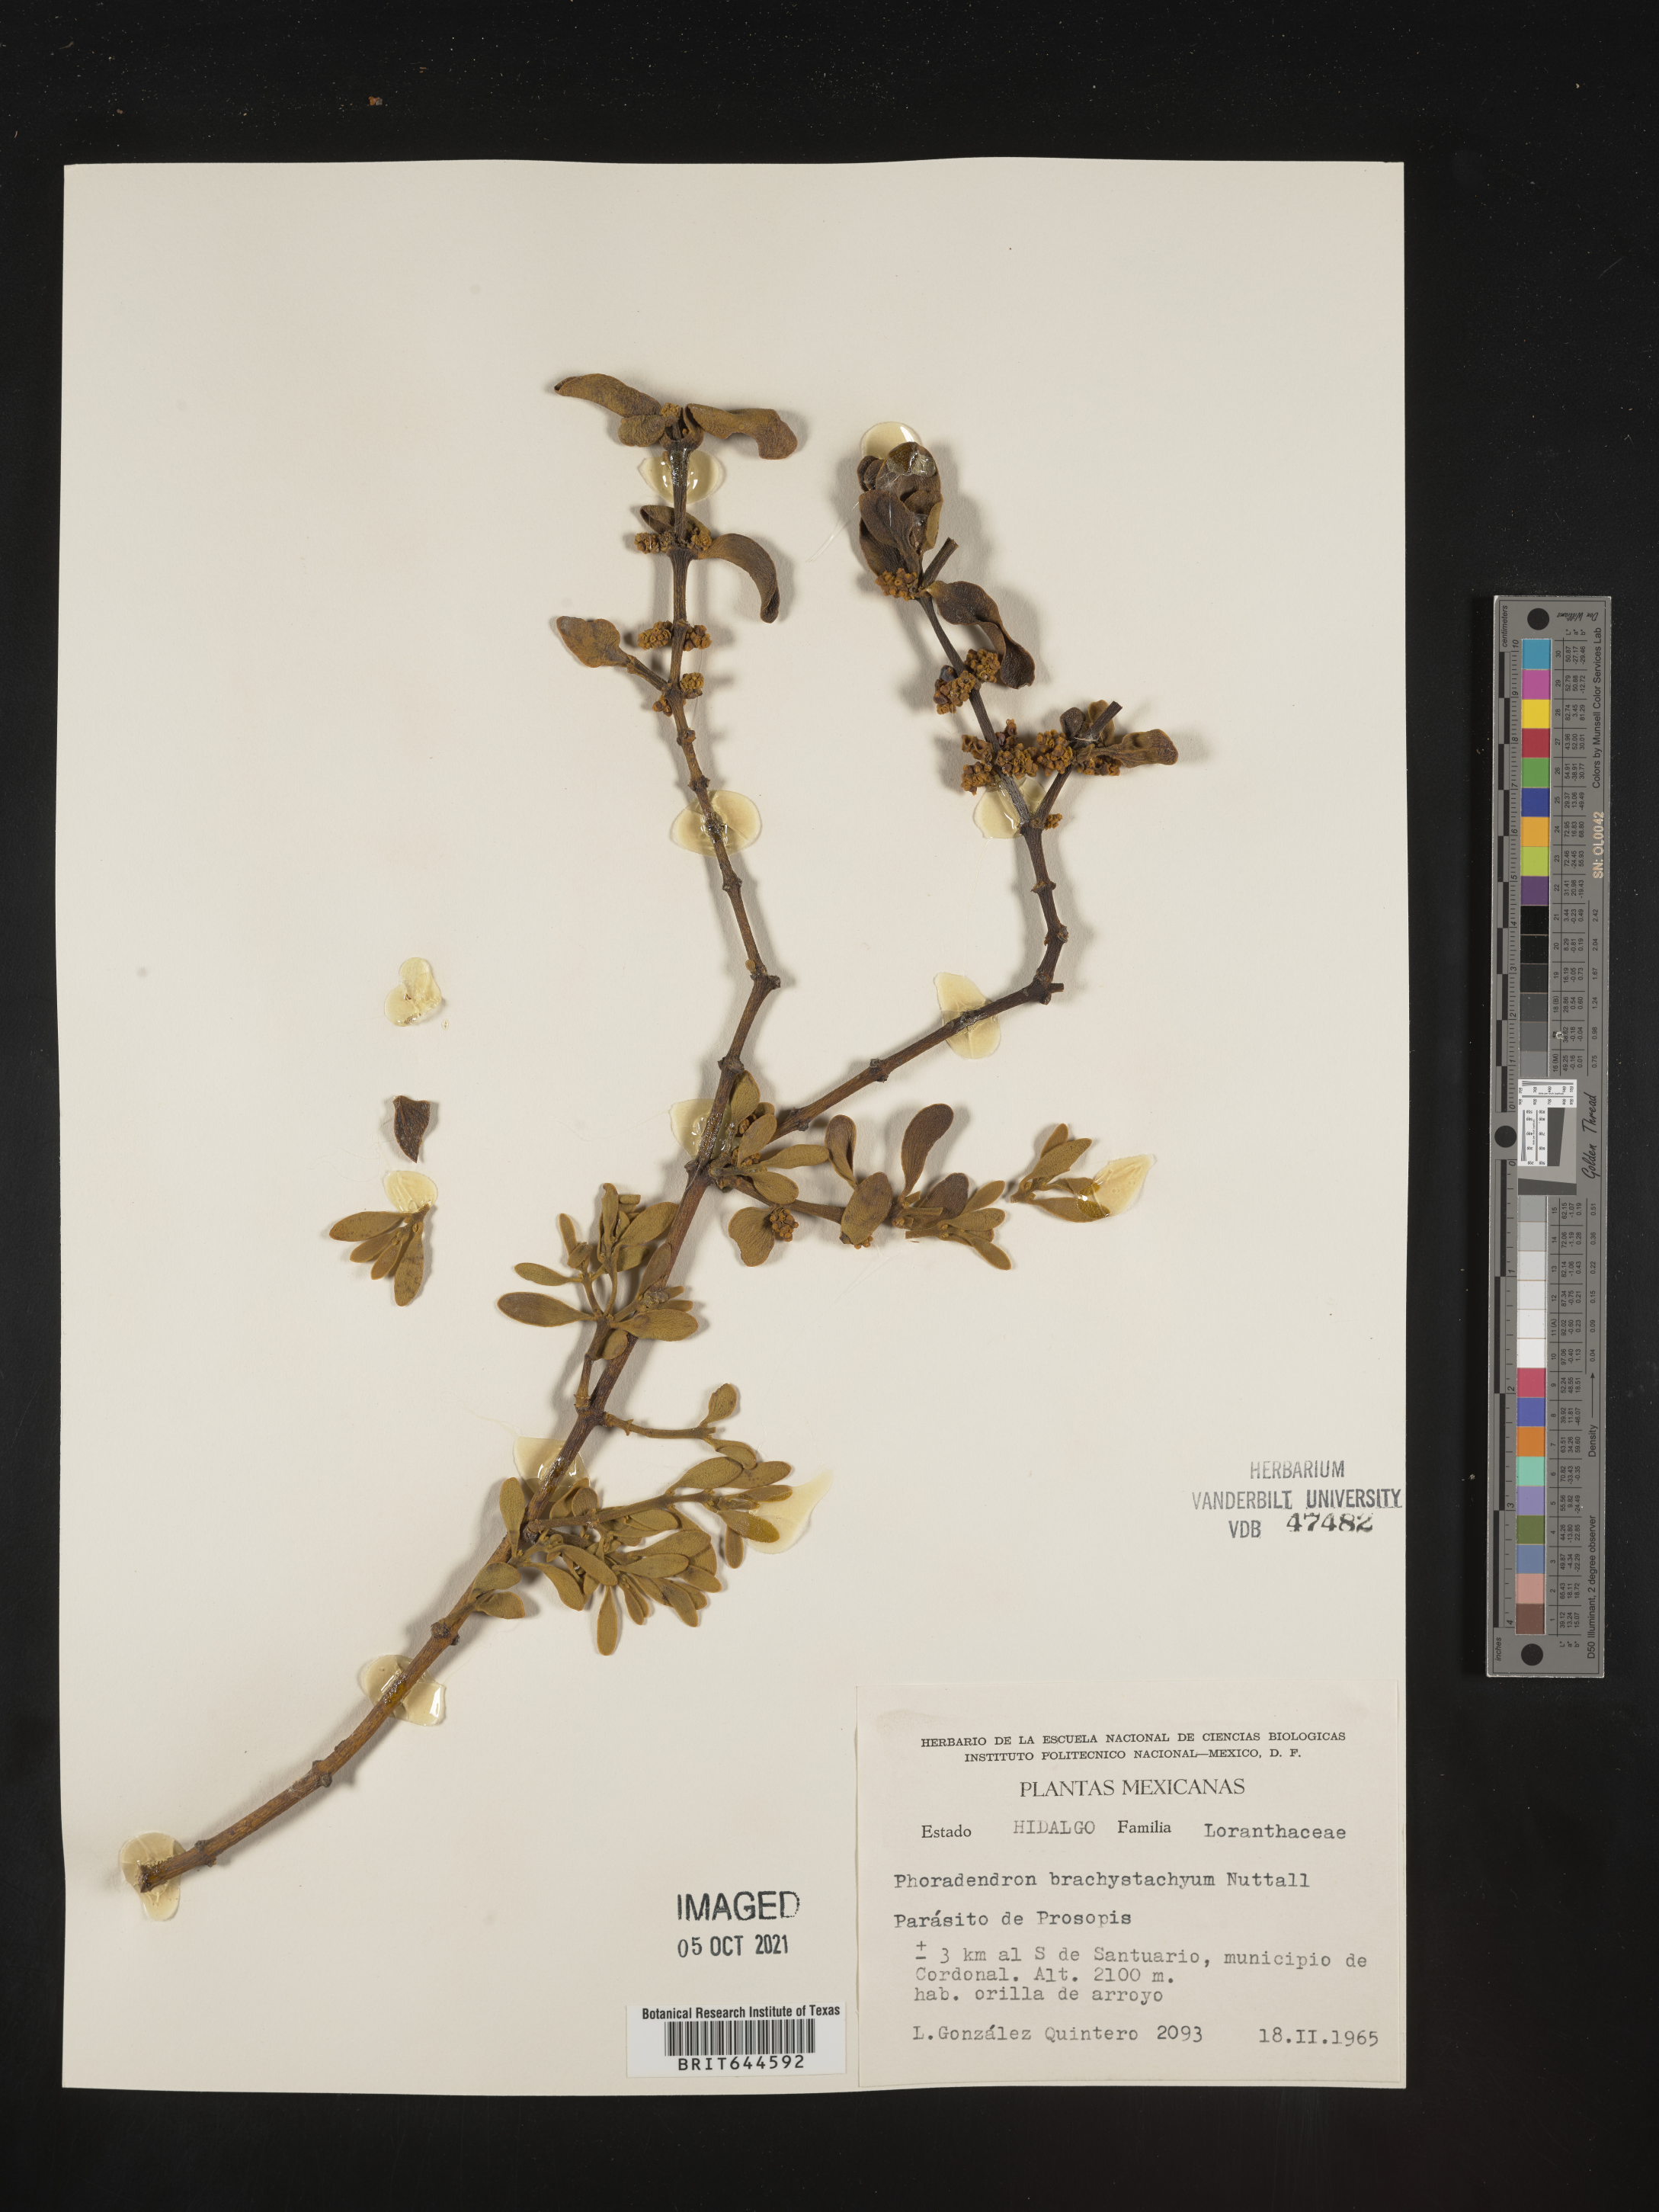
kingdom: Plantae
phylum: Tracheophyta
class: Magnoliopsida
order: Santalales
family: Viscaceae
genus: Phoradendron
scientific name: Phoradendron
